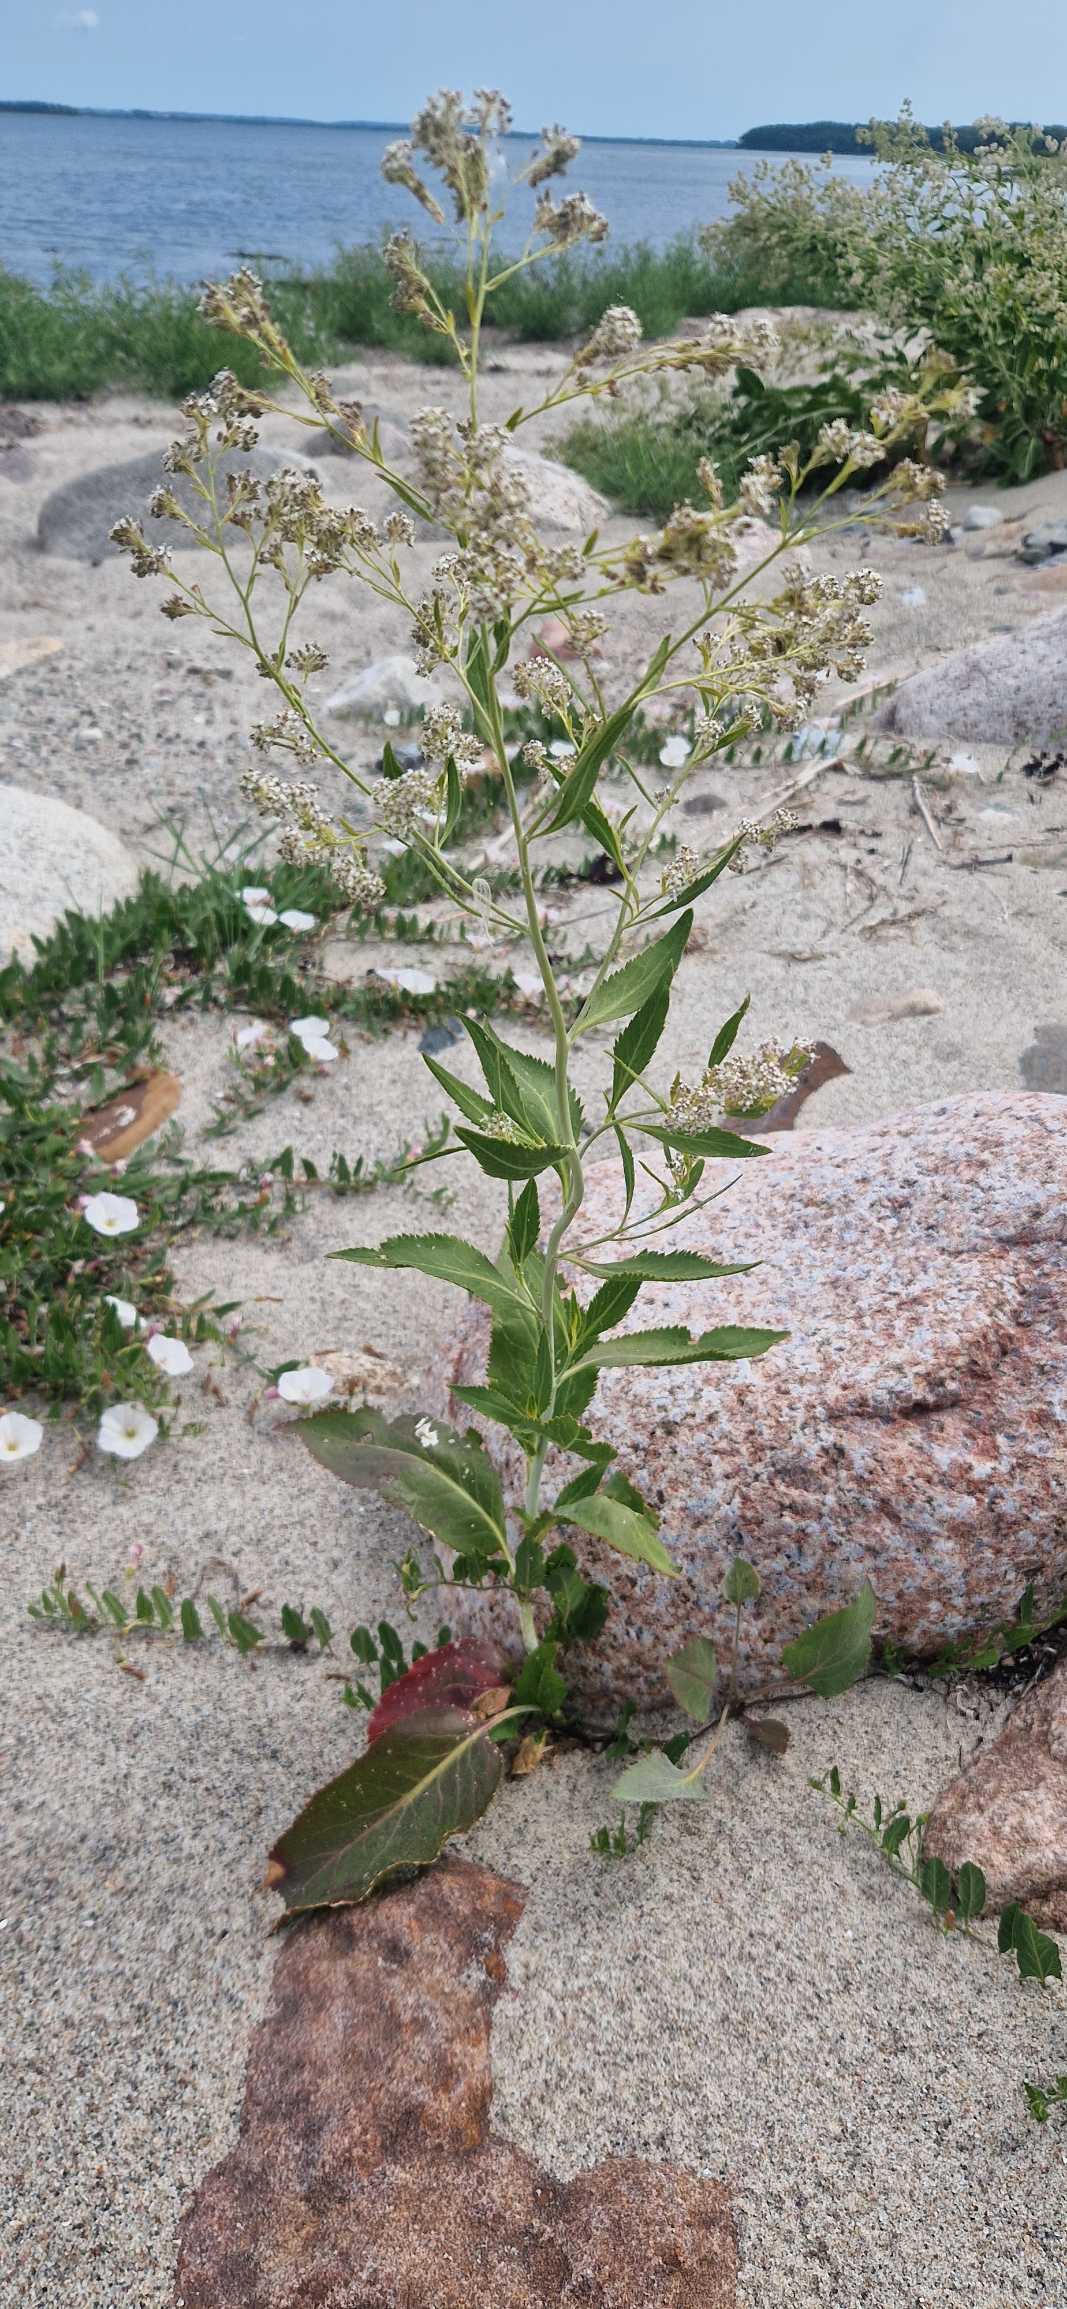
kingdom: Plantae
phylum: Tracheophyta
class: Magnoliopsida
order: Brassicales
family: Brassicaceae
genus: Lepidium
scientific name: Lepidium latifolium
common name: Strand-karse
